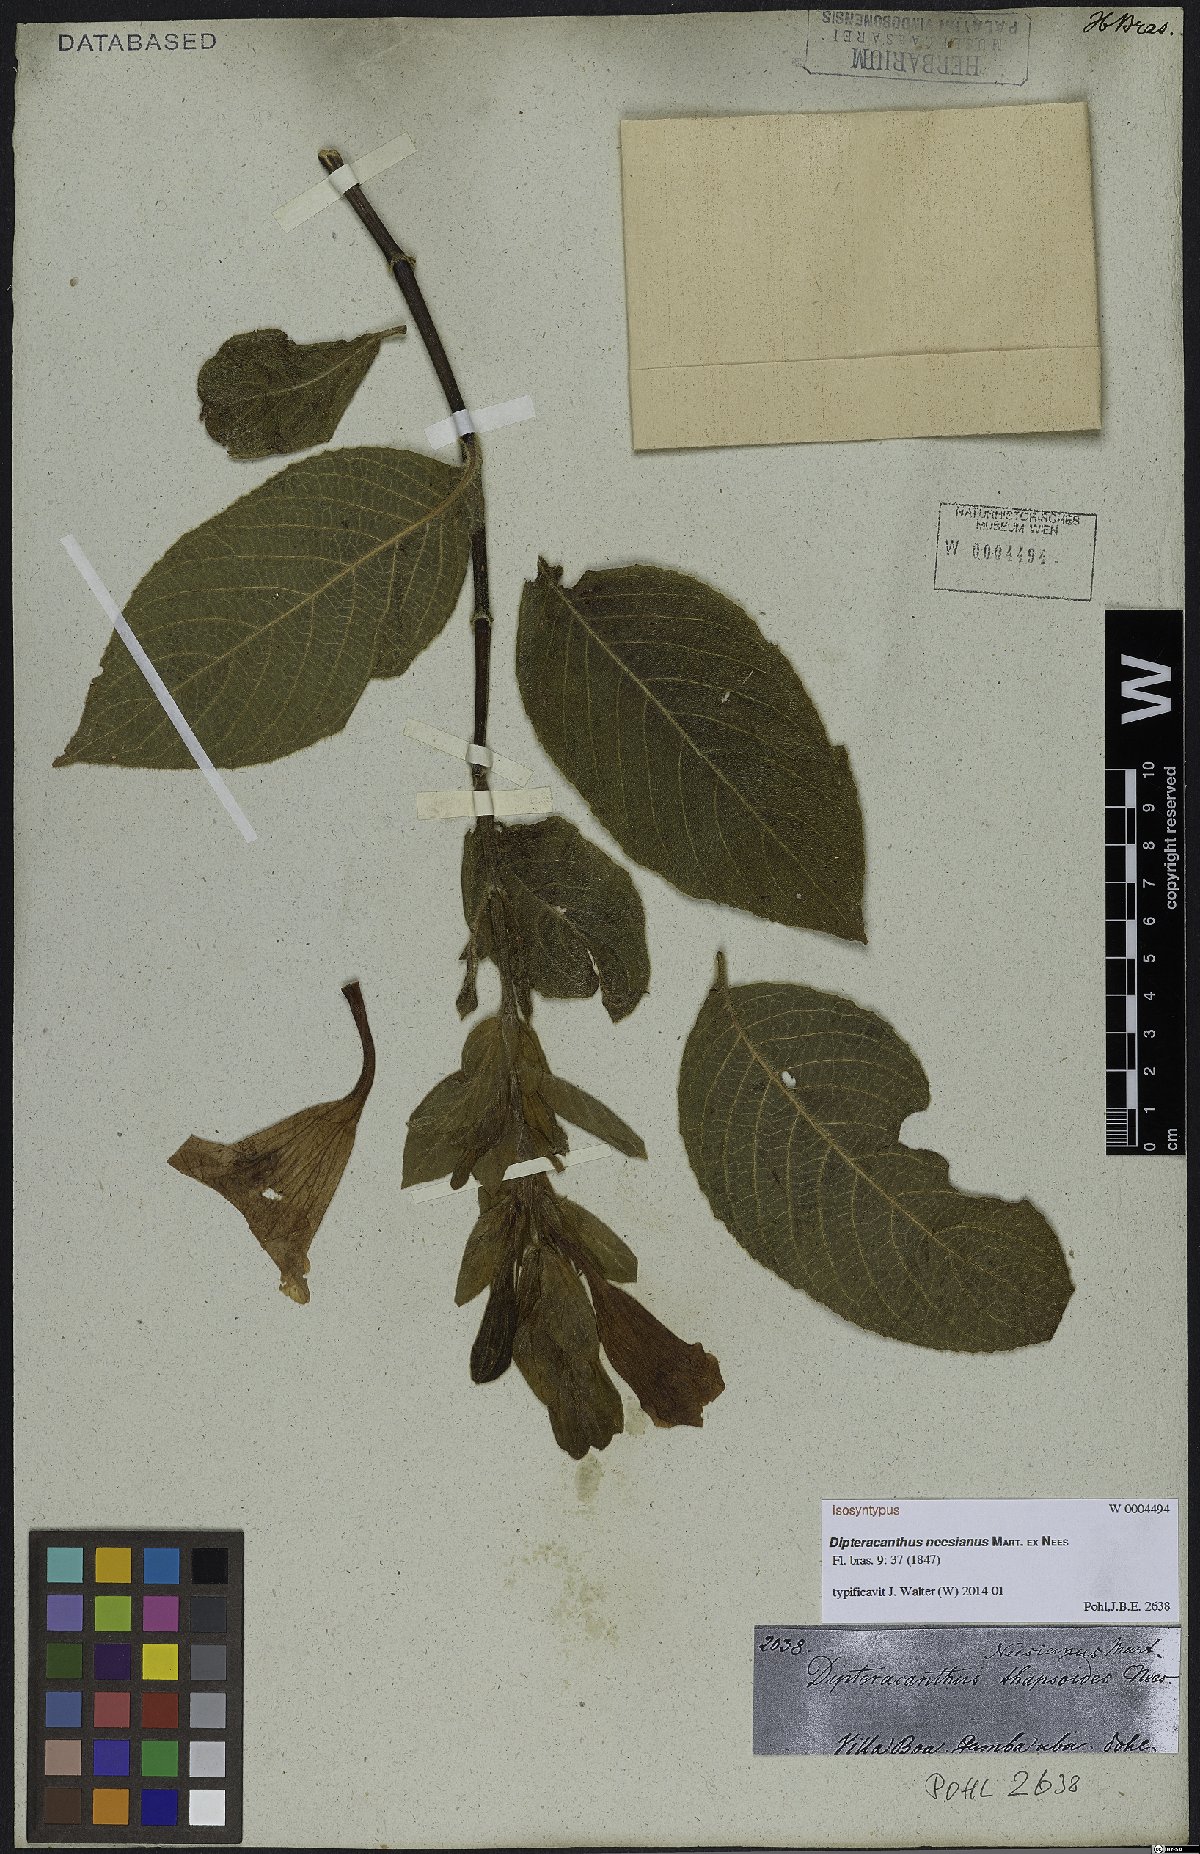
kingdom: Plantae
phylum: Tracheophyta
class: Magnoliopsida
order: Lamiales
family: Acanthaceae
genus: Ruellia
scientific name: Ruellia neesiana
